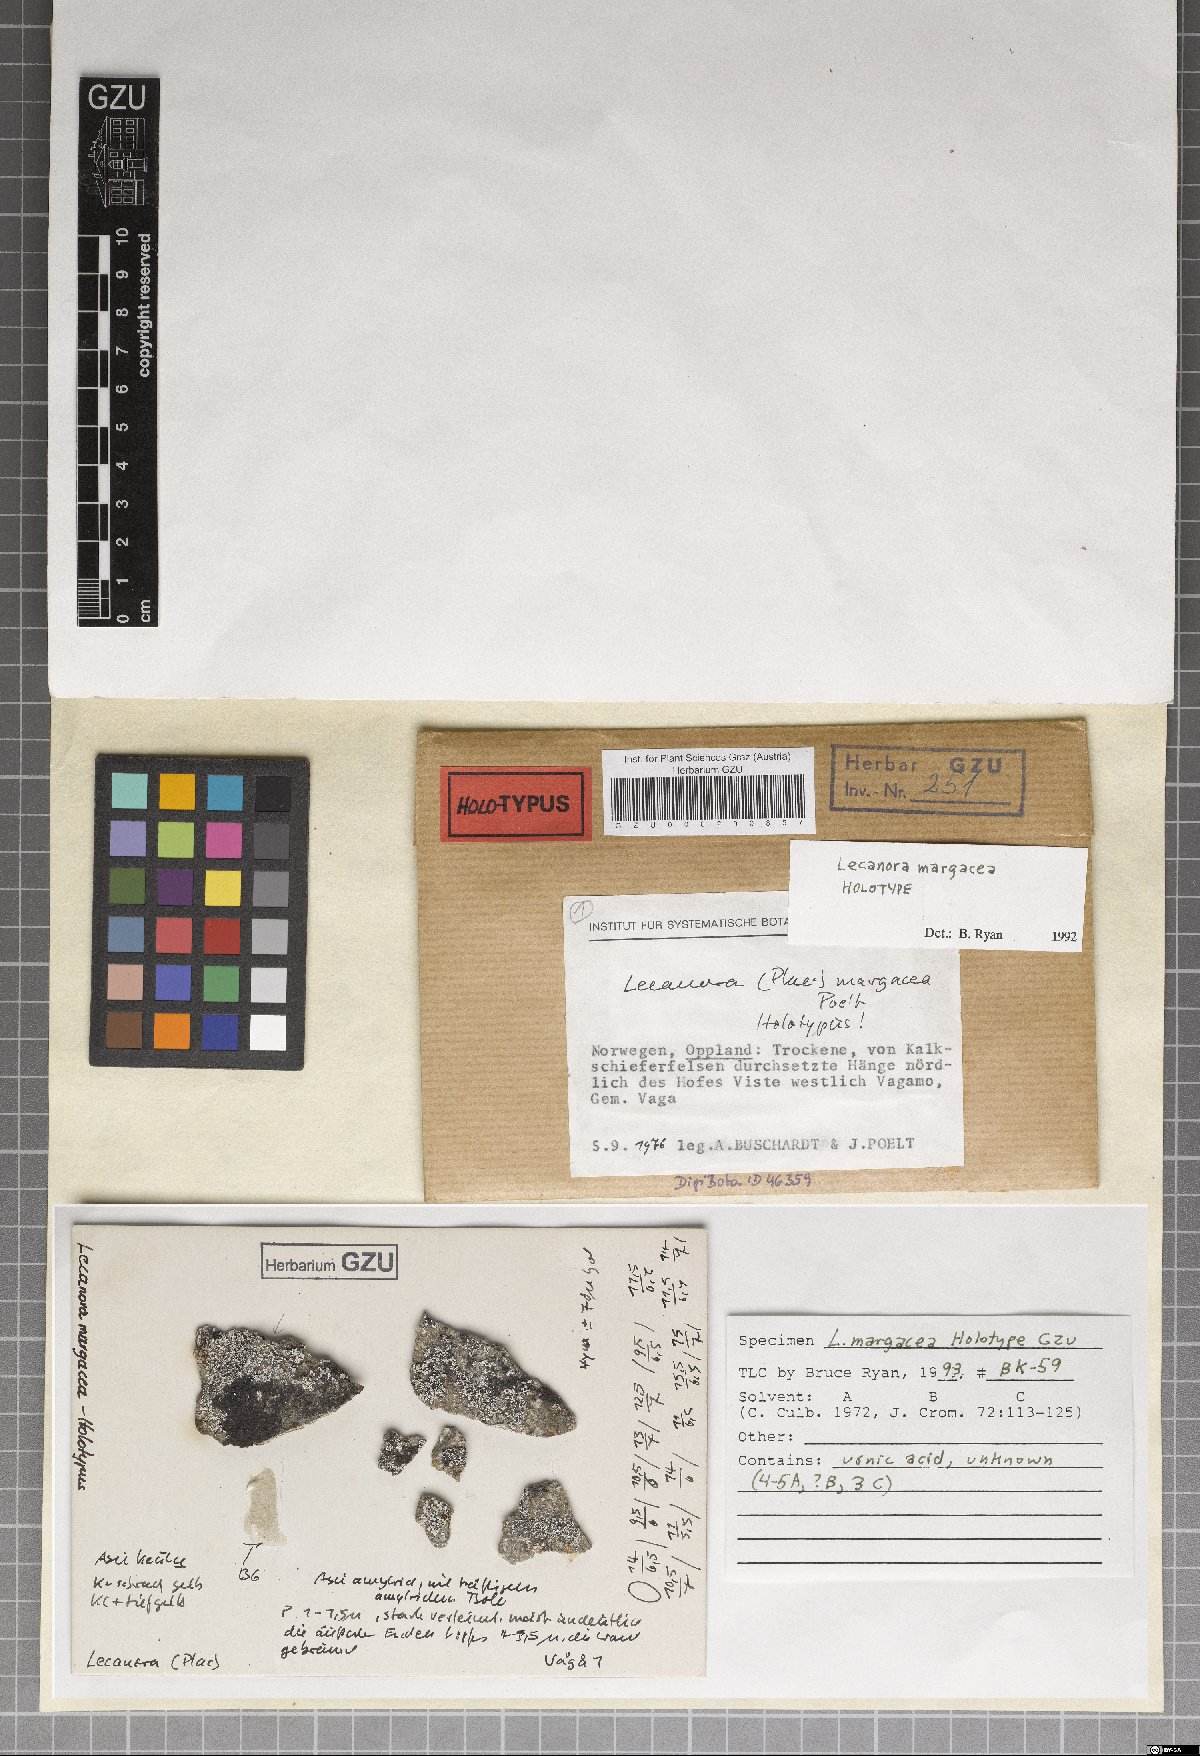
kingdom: Fungi
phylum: Ascomycota
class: Lecanoromycetes
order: Lecanorales
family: Lecanoraceae
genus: Lecanora
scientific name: Lecanora margacea
